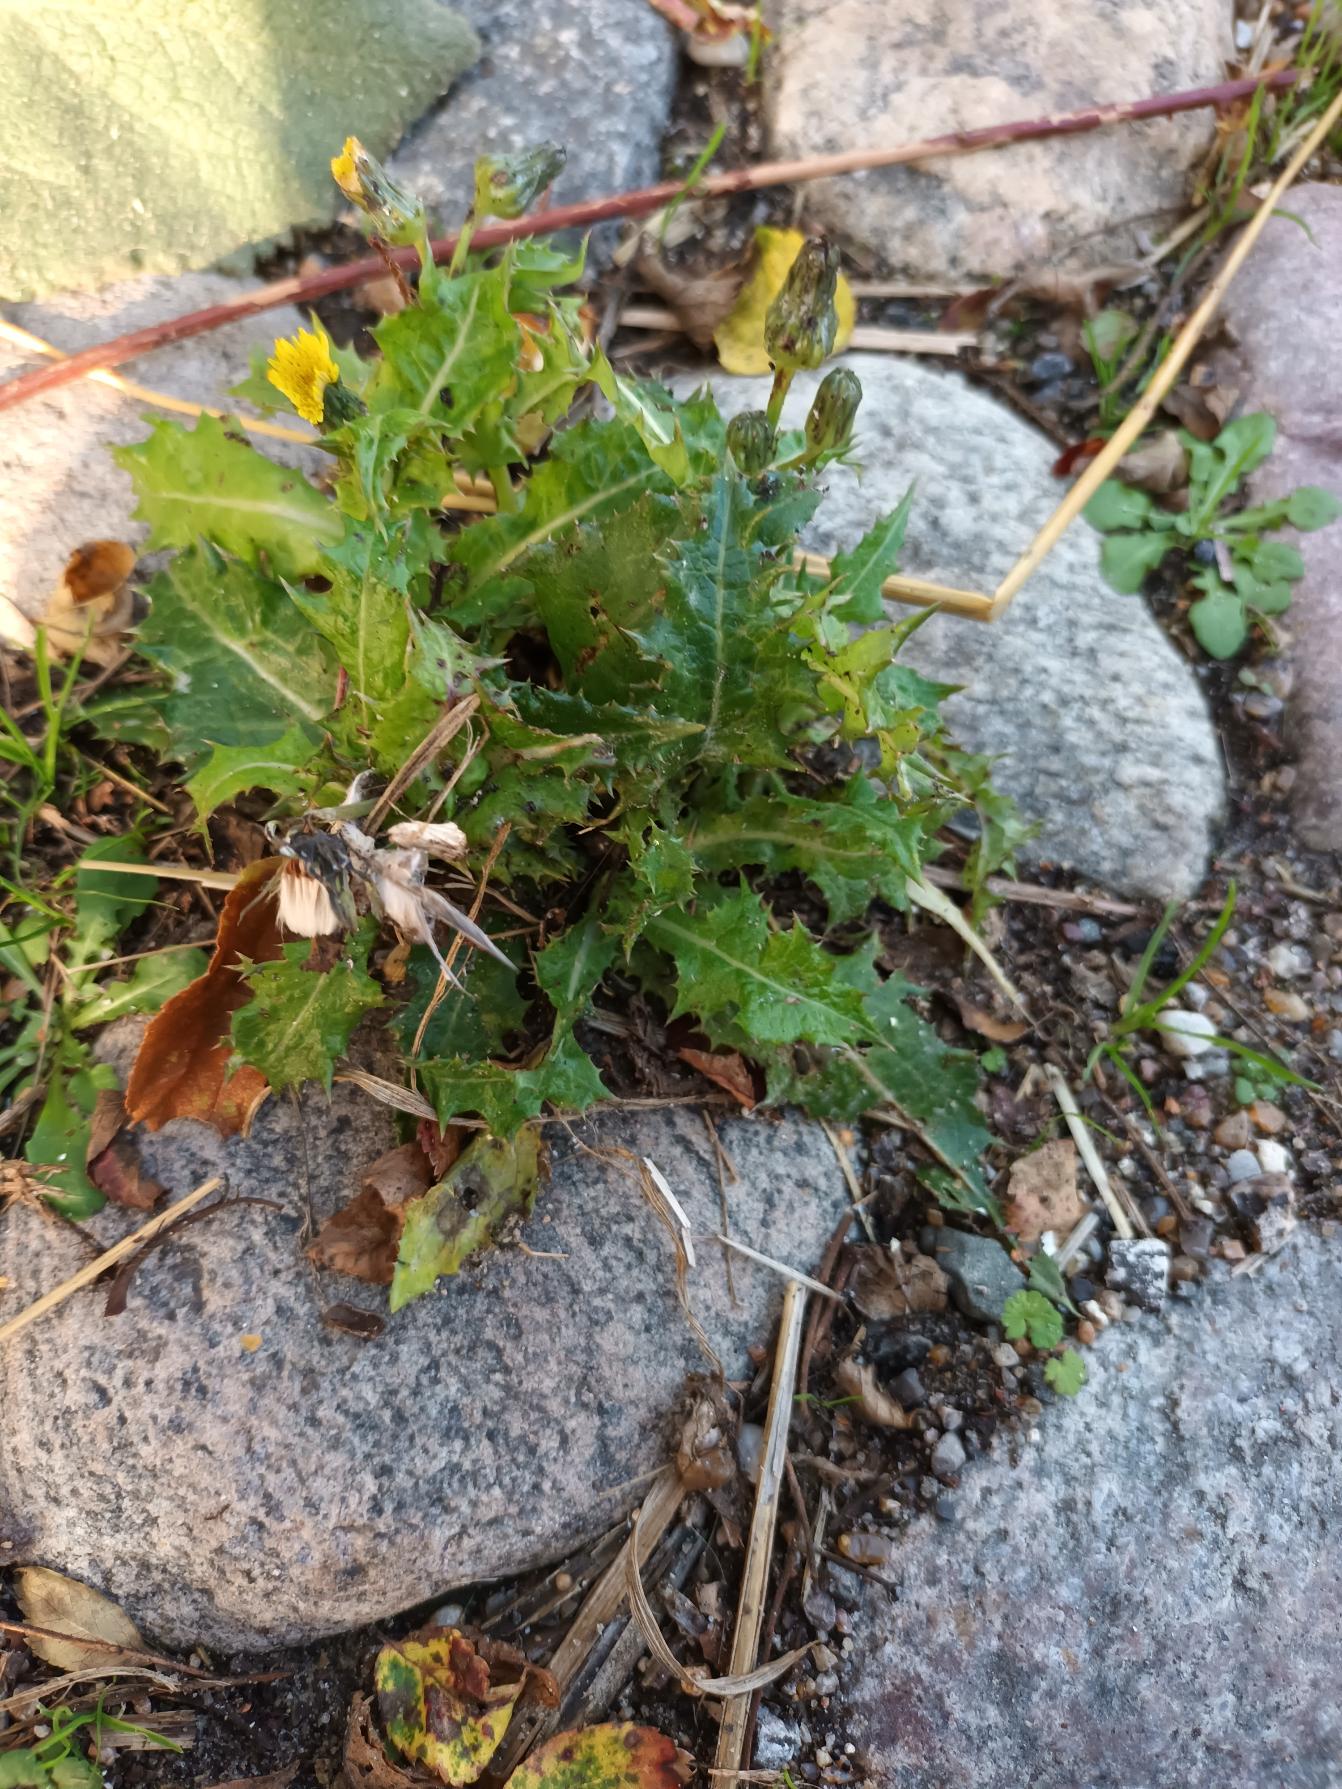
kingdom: Plantae
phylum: Tracheophyta
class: Magnoliopsida
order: Asterales
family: Asteraceae
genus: Sonchus
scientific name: Sonchus asper
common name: Ru svinemælk
